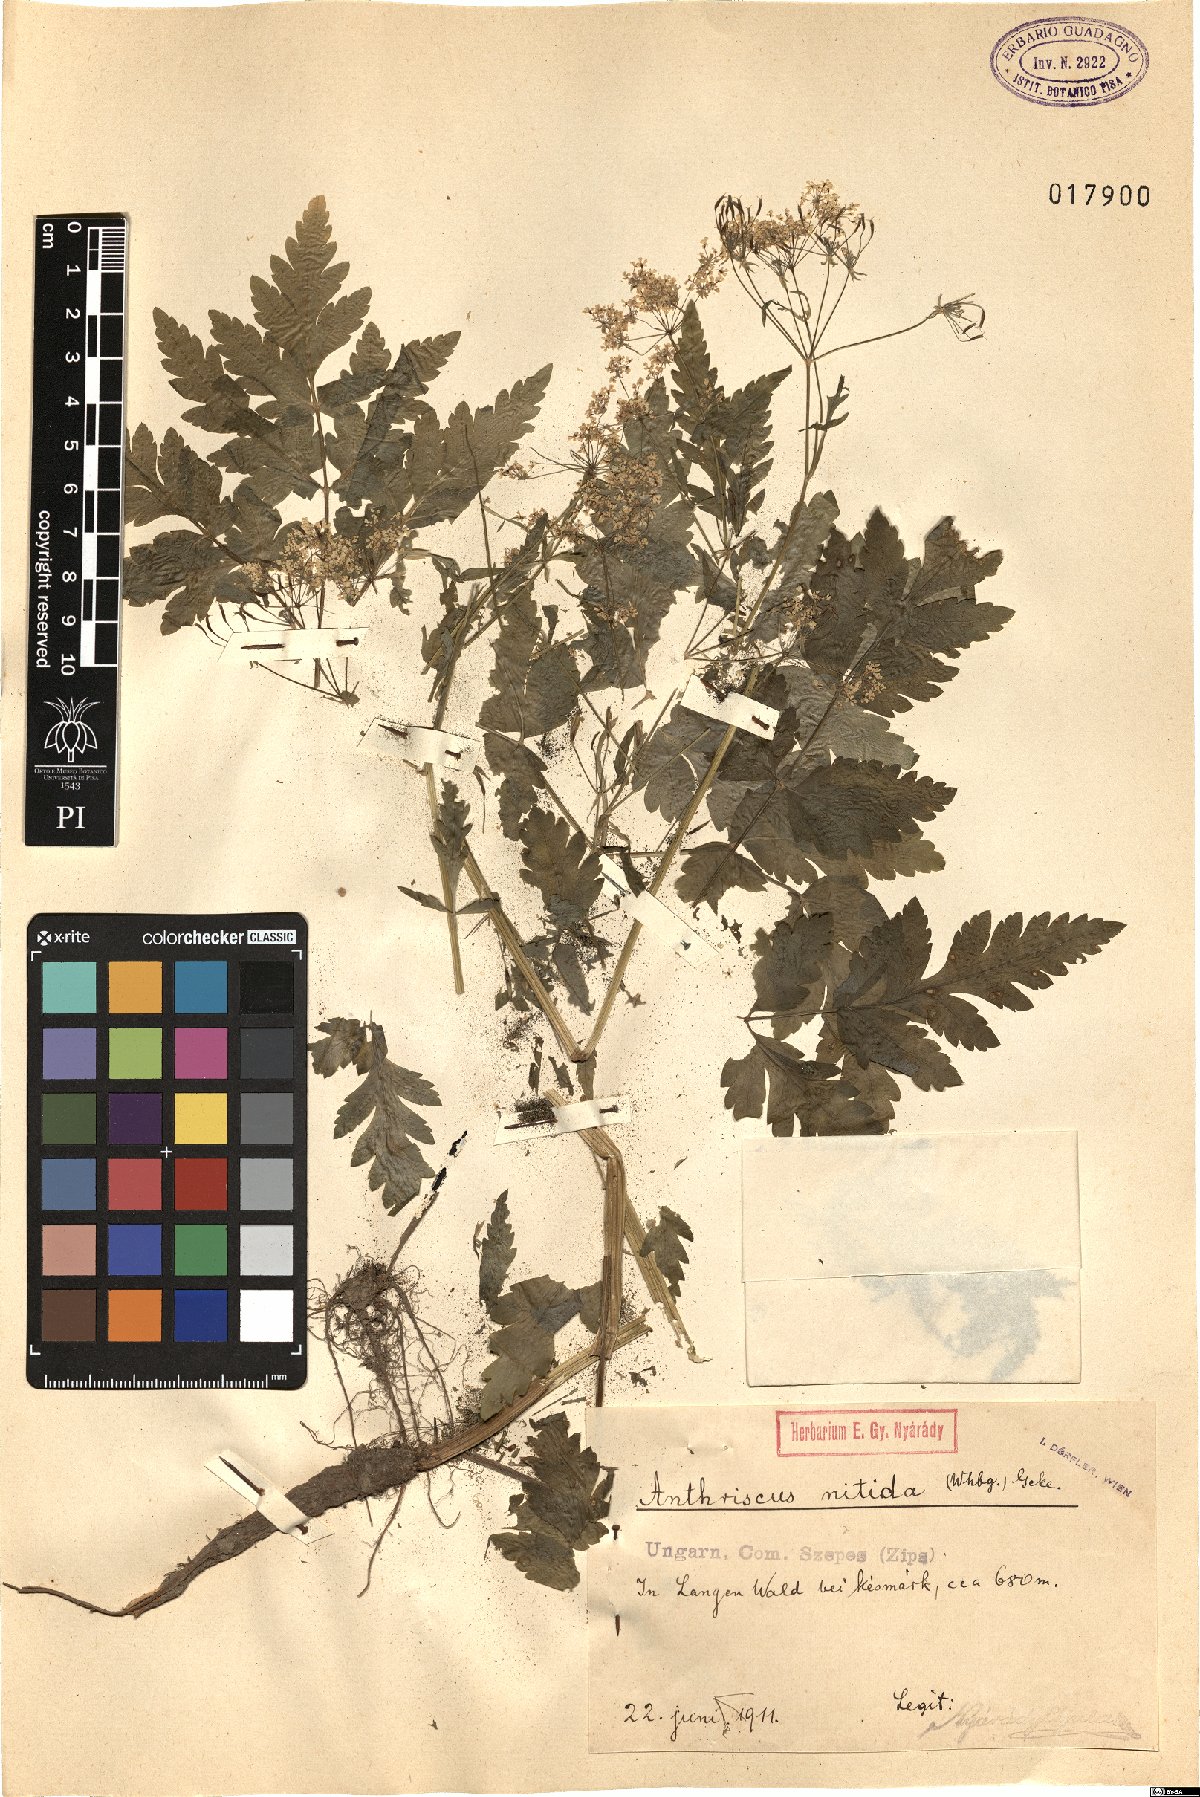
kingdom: Plantae
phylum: Tracheophyta
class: Magnoliopsida
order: Apiales
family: Apiaceae
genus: Anthriscus
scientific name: Anthriscus nitida
